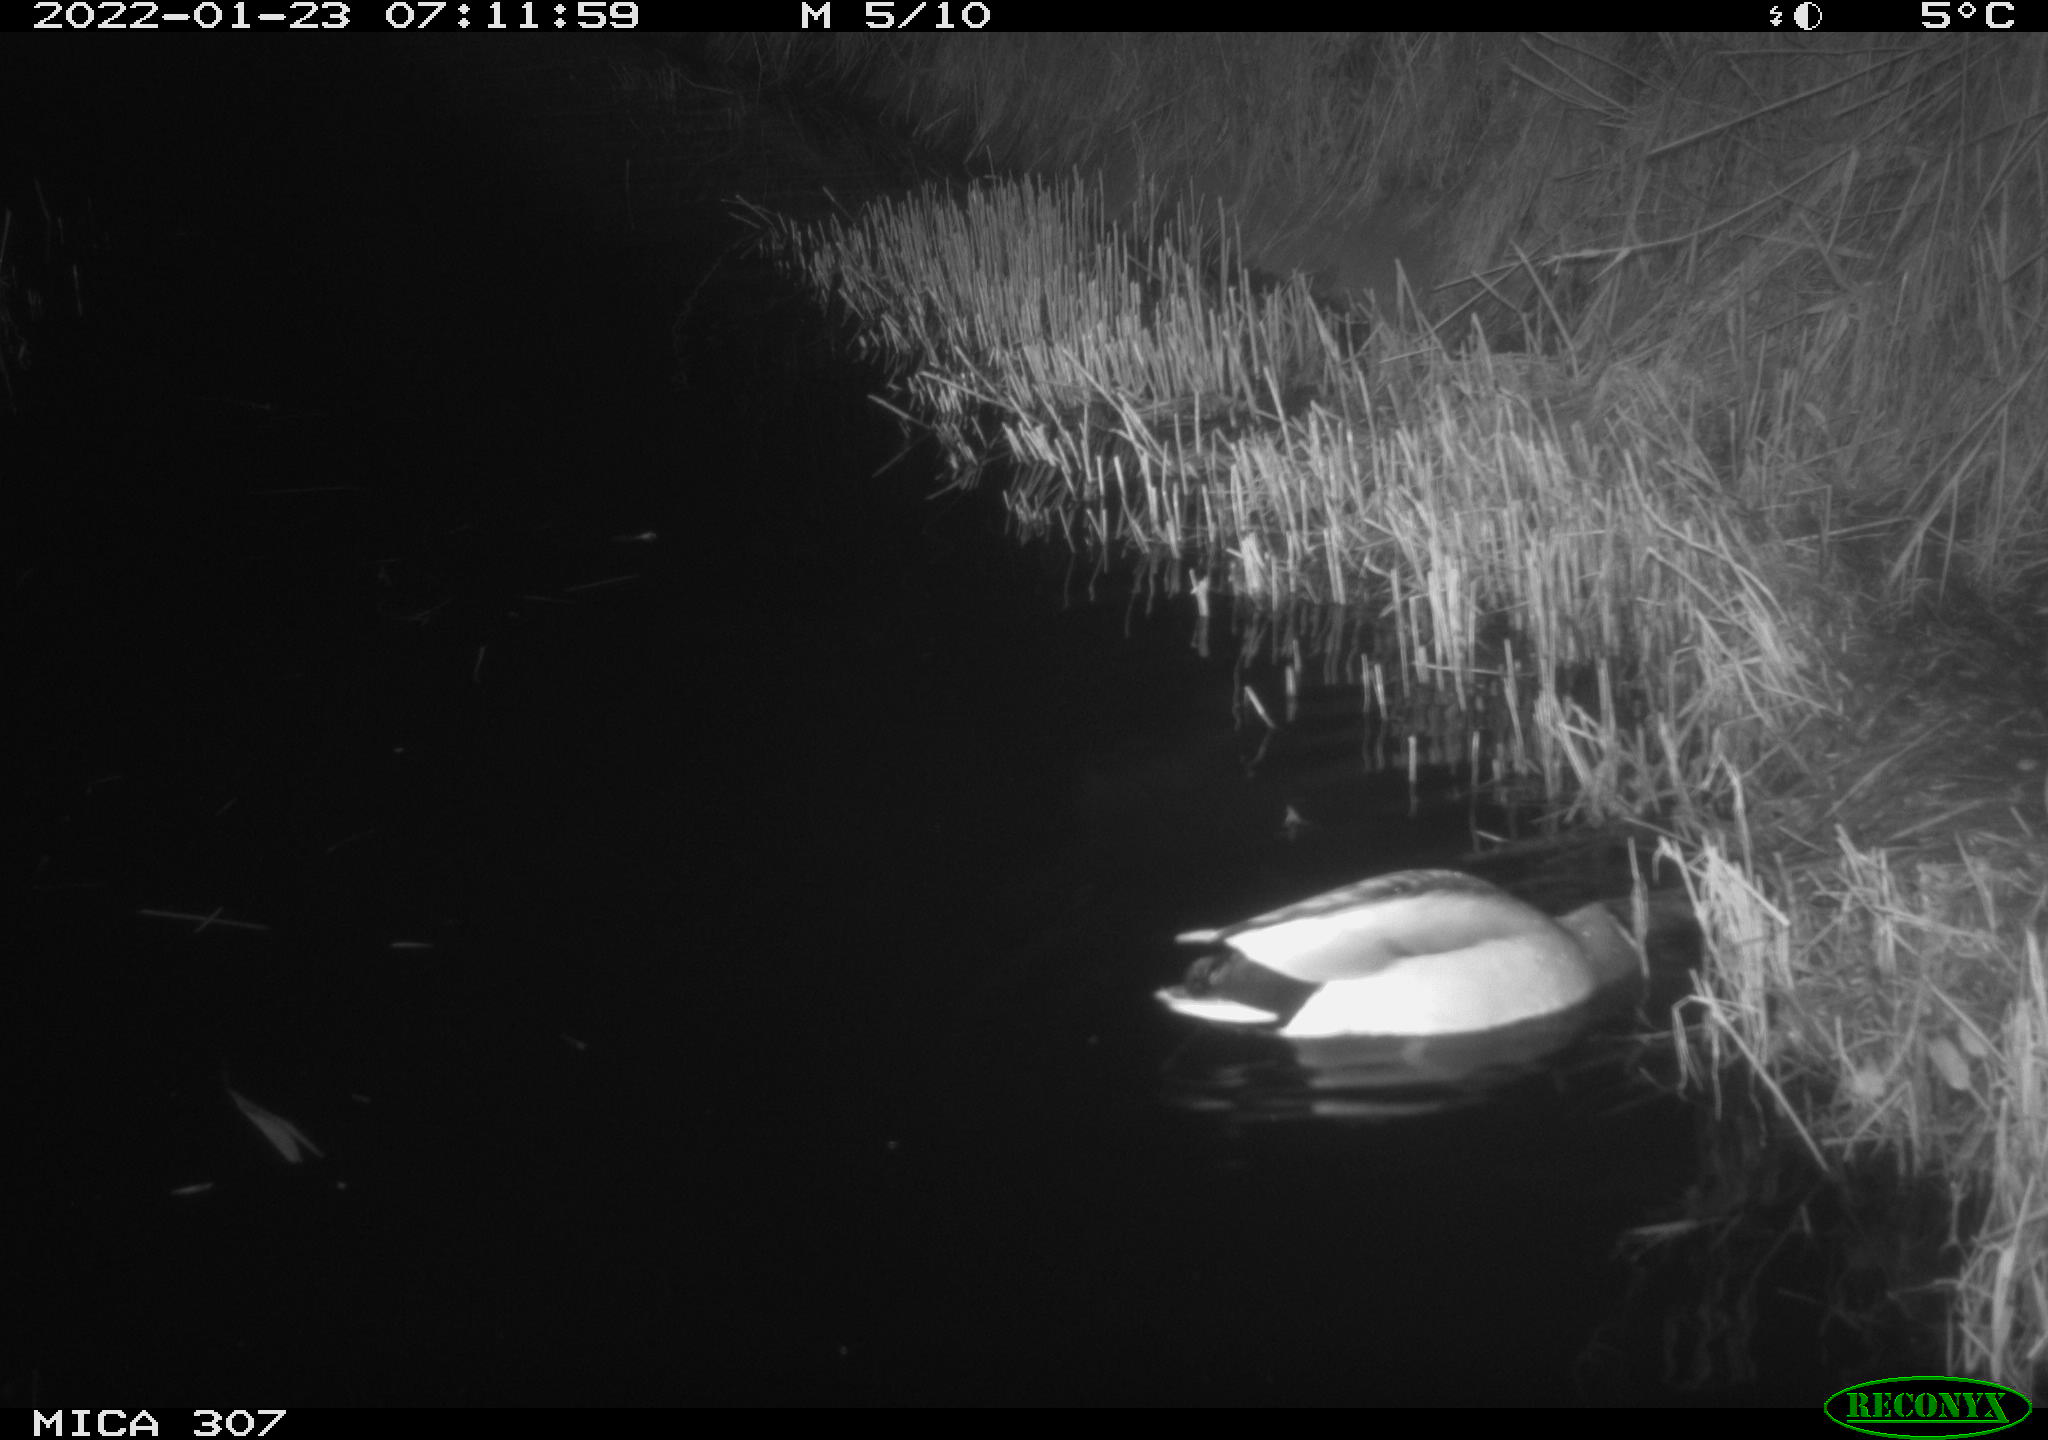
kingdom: Animalia
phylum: Chordata
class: Mammalia
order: Rodentia
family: Muridae
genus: Rattus
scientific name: Rattus norvegicus
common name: Brown rat
